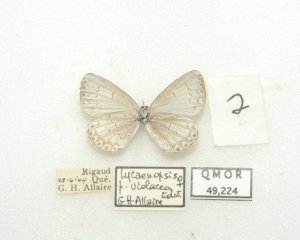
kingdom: Animalia
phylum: Arthropoda
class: Insecta
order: Lepidoptera
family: Lycaenidae
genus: Cyaniris
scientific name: Cyaniris neglecta
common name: Summer Azure
